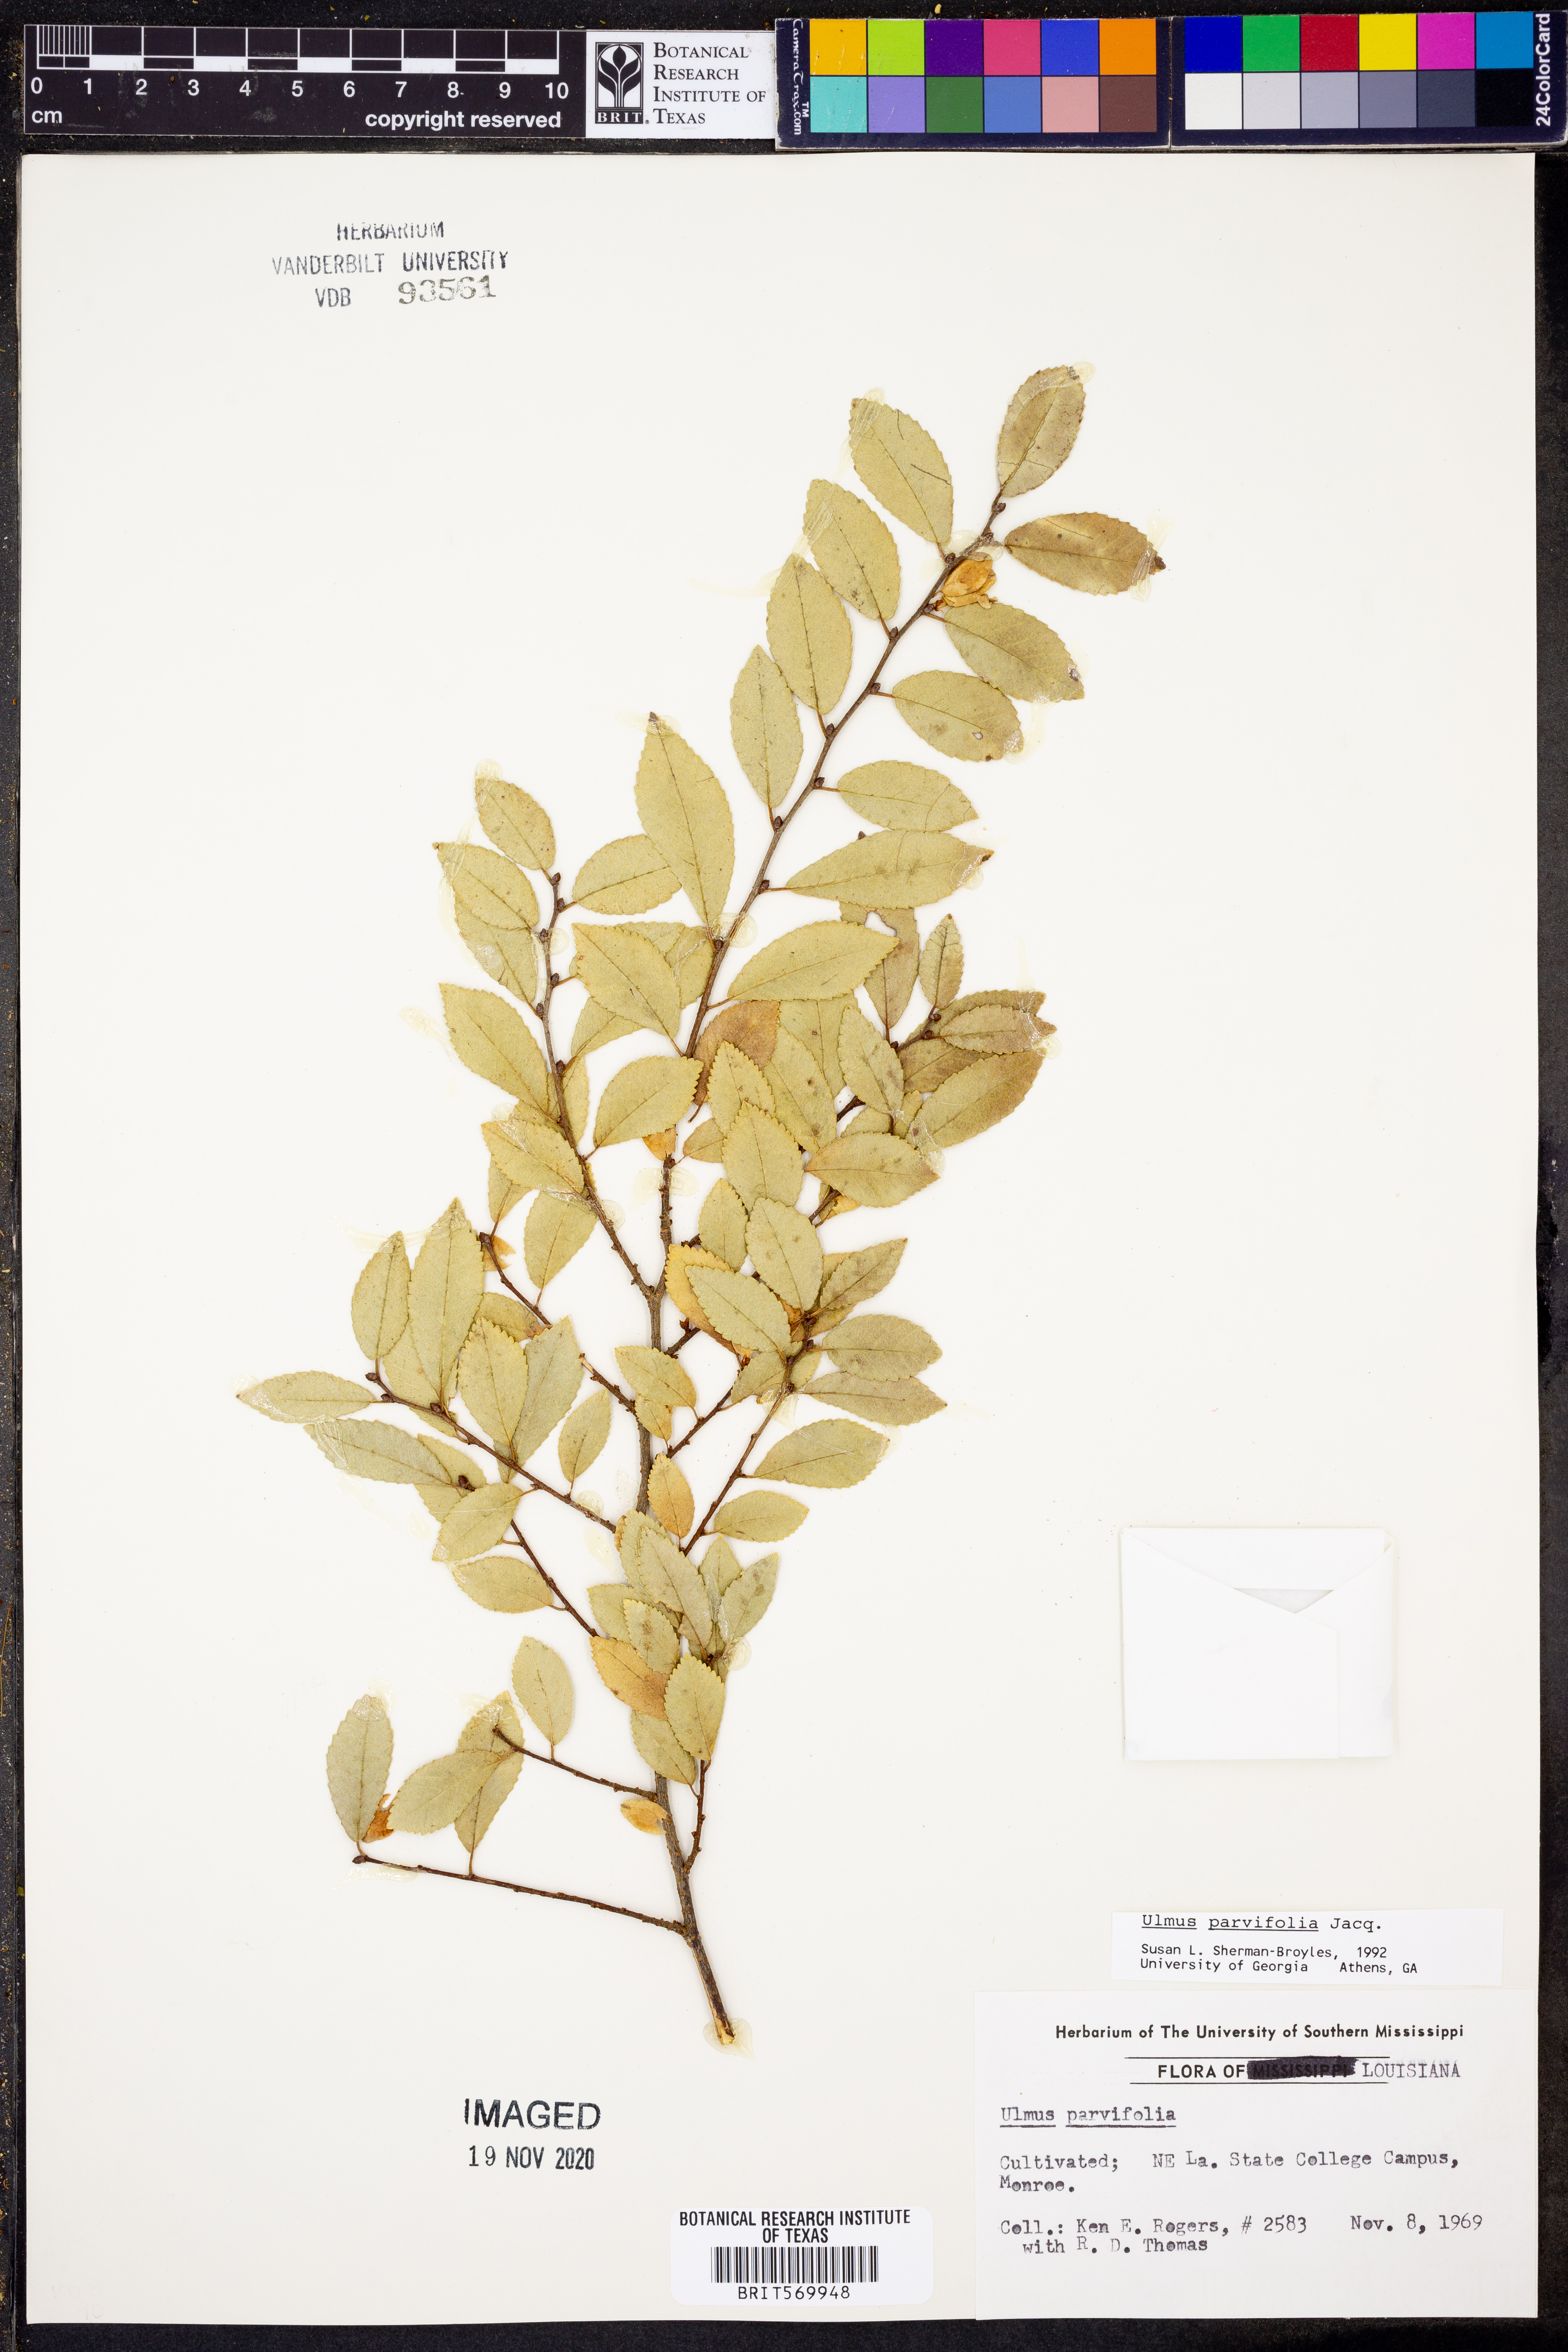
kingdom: Plantae
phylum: Tracheophyta
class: Magnoliopsida
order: Rosales
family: Ulmaceae
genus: Ulmus
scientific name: Ulmus parvifolia
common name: Chinese elm
